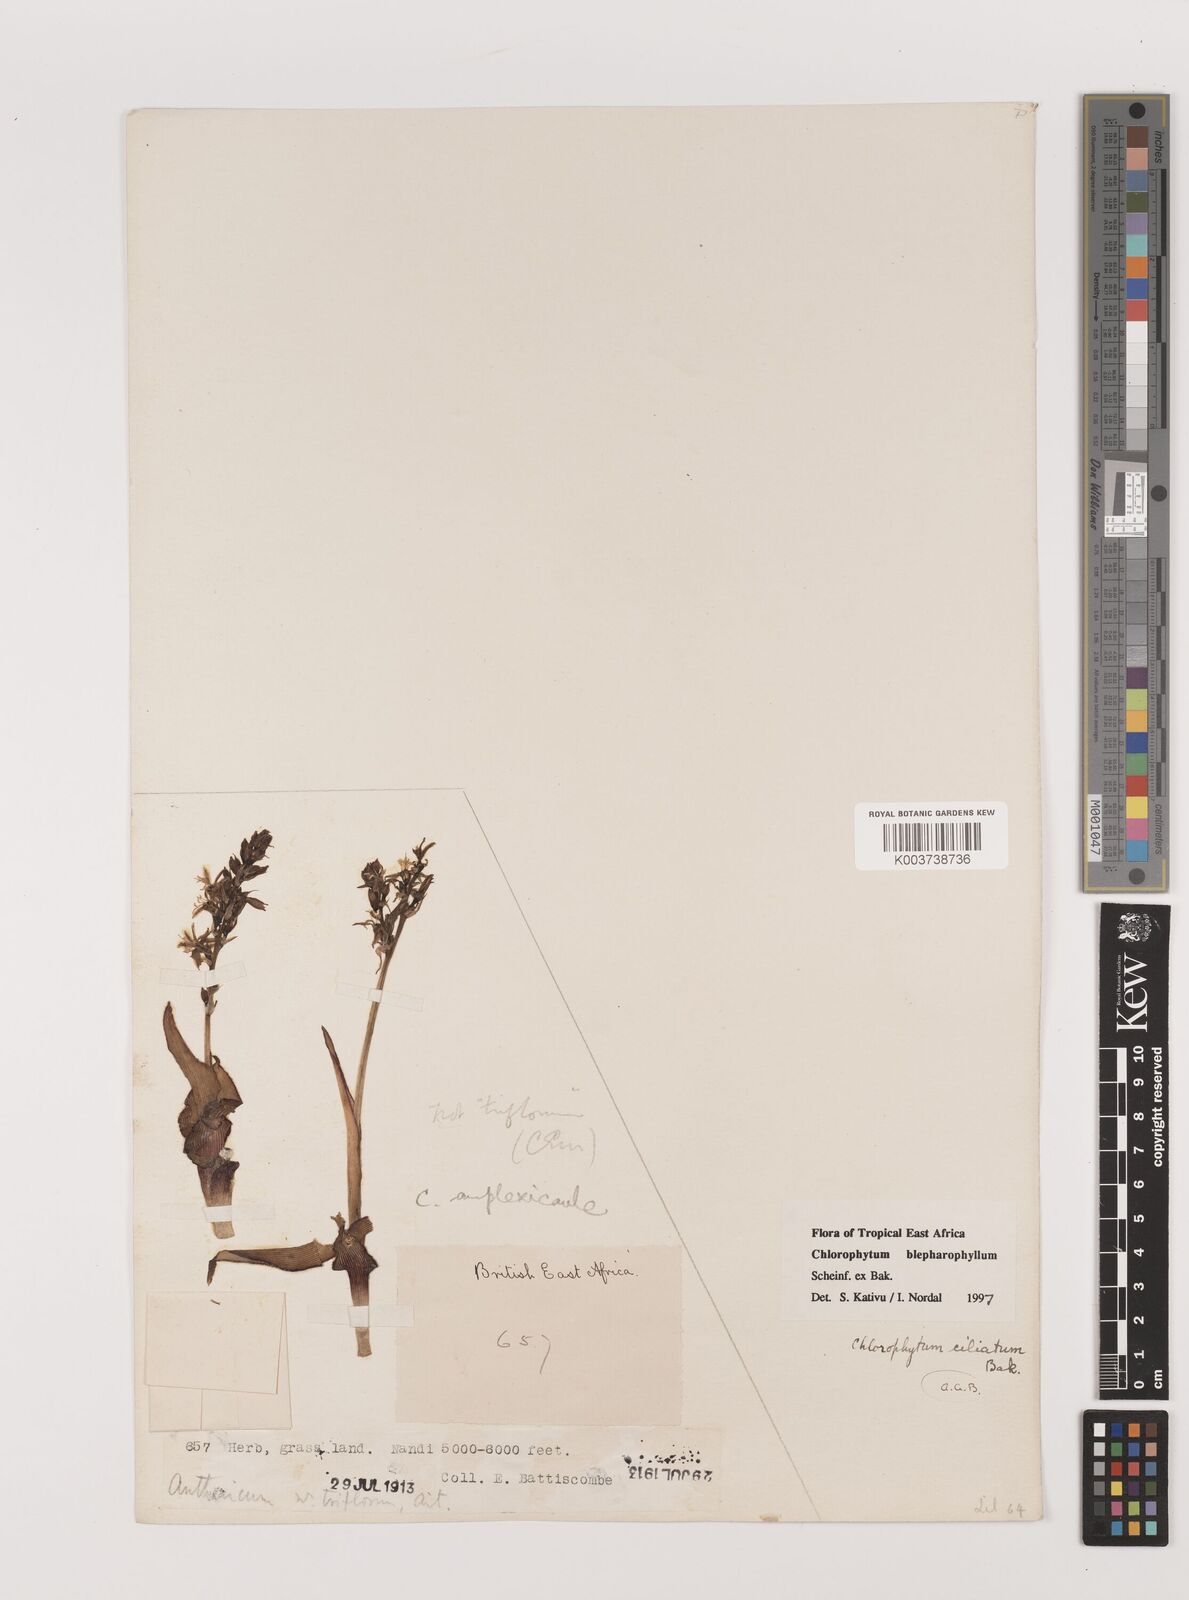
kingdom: Plantae
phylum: Tracheophyta
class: Liliopsida
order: Asparagales
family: Asparagaceae
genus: Chlorophytum
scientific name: Chlorophytum blepharophyllum
